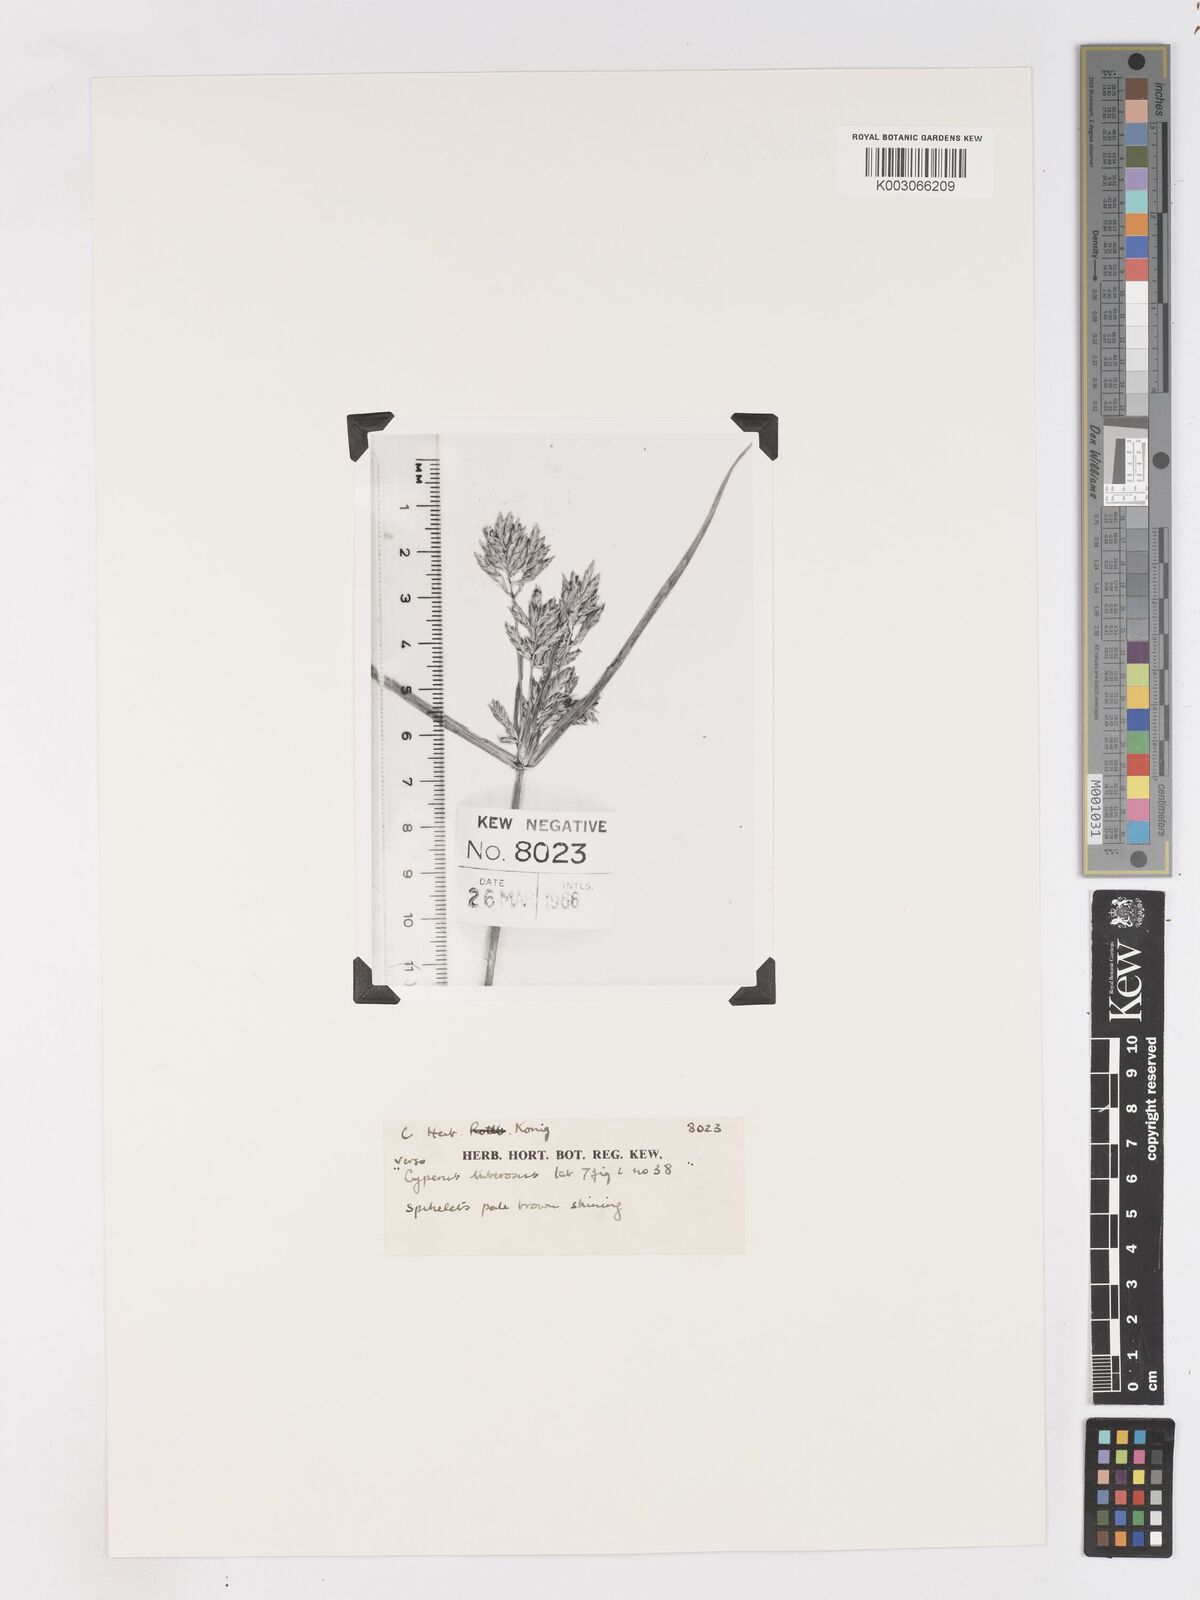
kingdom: Plantae
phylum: Tracheophyta
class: Liliopsida
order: Poales
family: Cyperaceae
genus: Cyperus
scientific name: Cyperus tuberosus
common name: Nut grass
